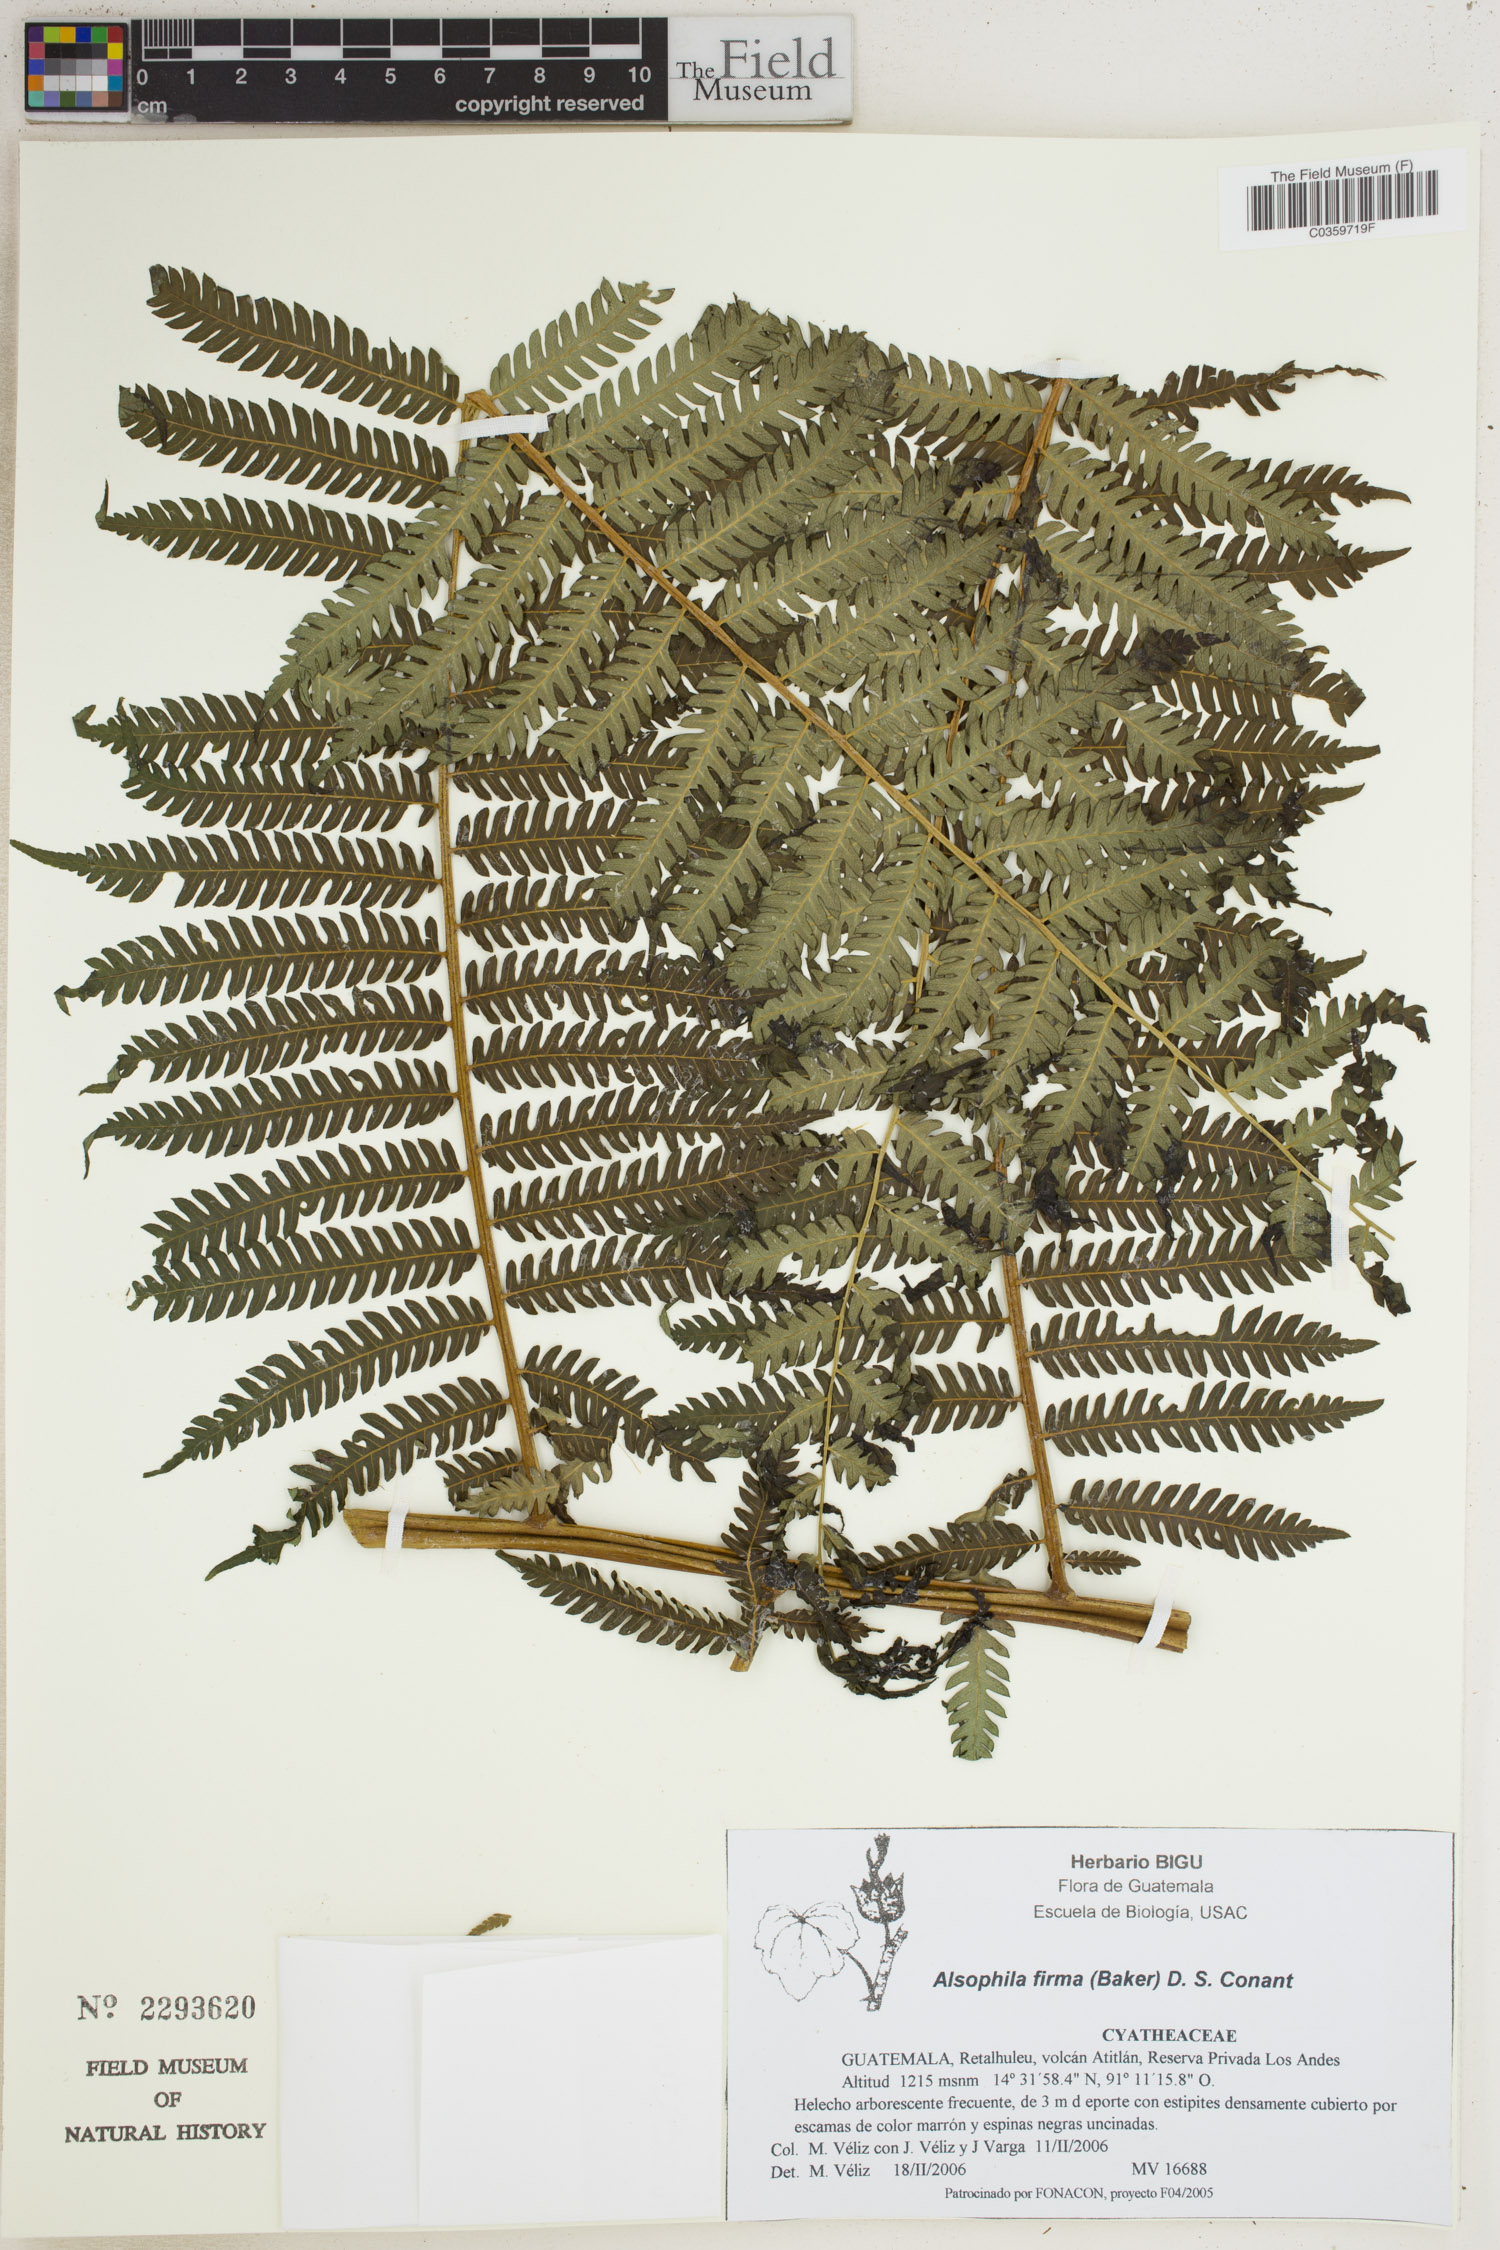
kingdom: Plantae
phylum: Tracheophyta
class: Polypodiopsida
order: Cyatheales
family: Cyatheaceae
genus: Alsophila
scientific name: Alsophila firma
